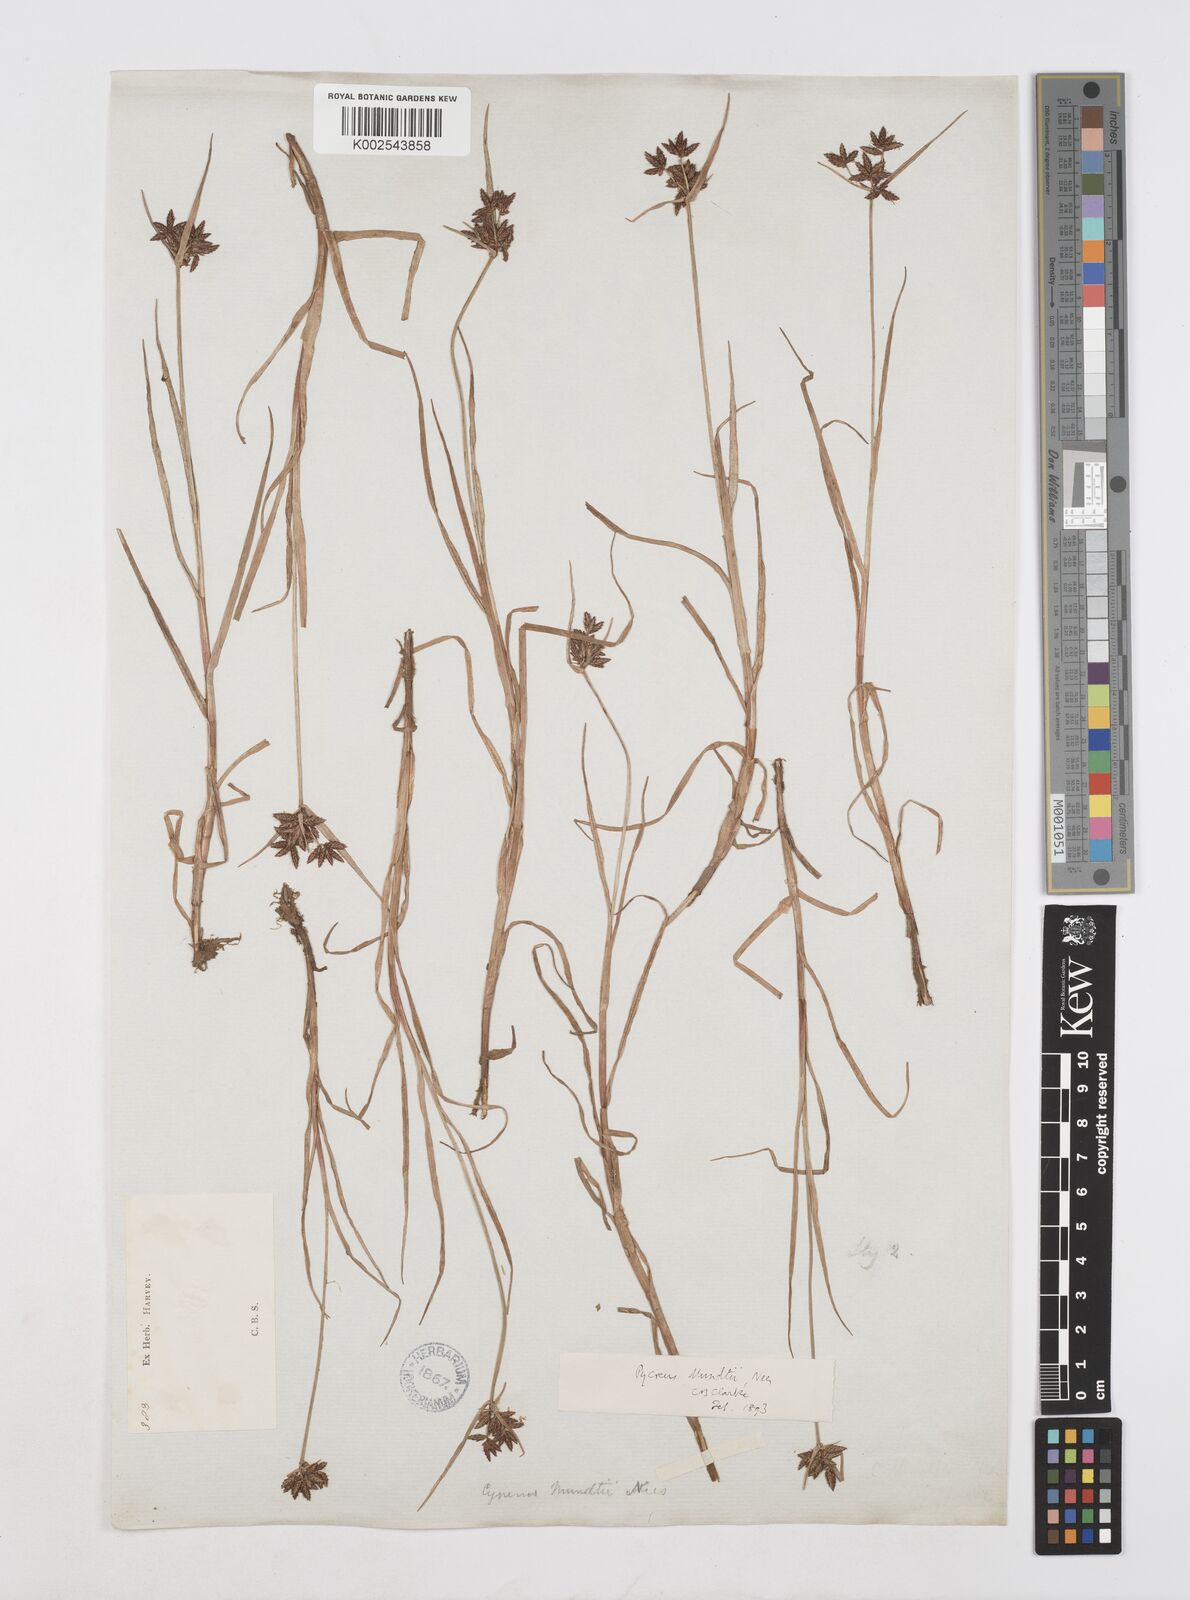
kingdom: Plantae
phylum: Tracheophyta
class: Liliopsida
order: Poales
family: Cyperaceae
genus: Cyperus
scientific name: Cyperus mundii
